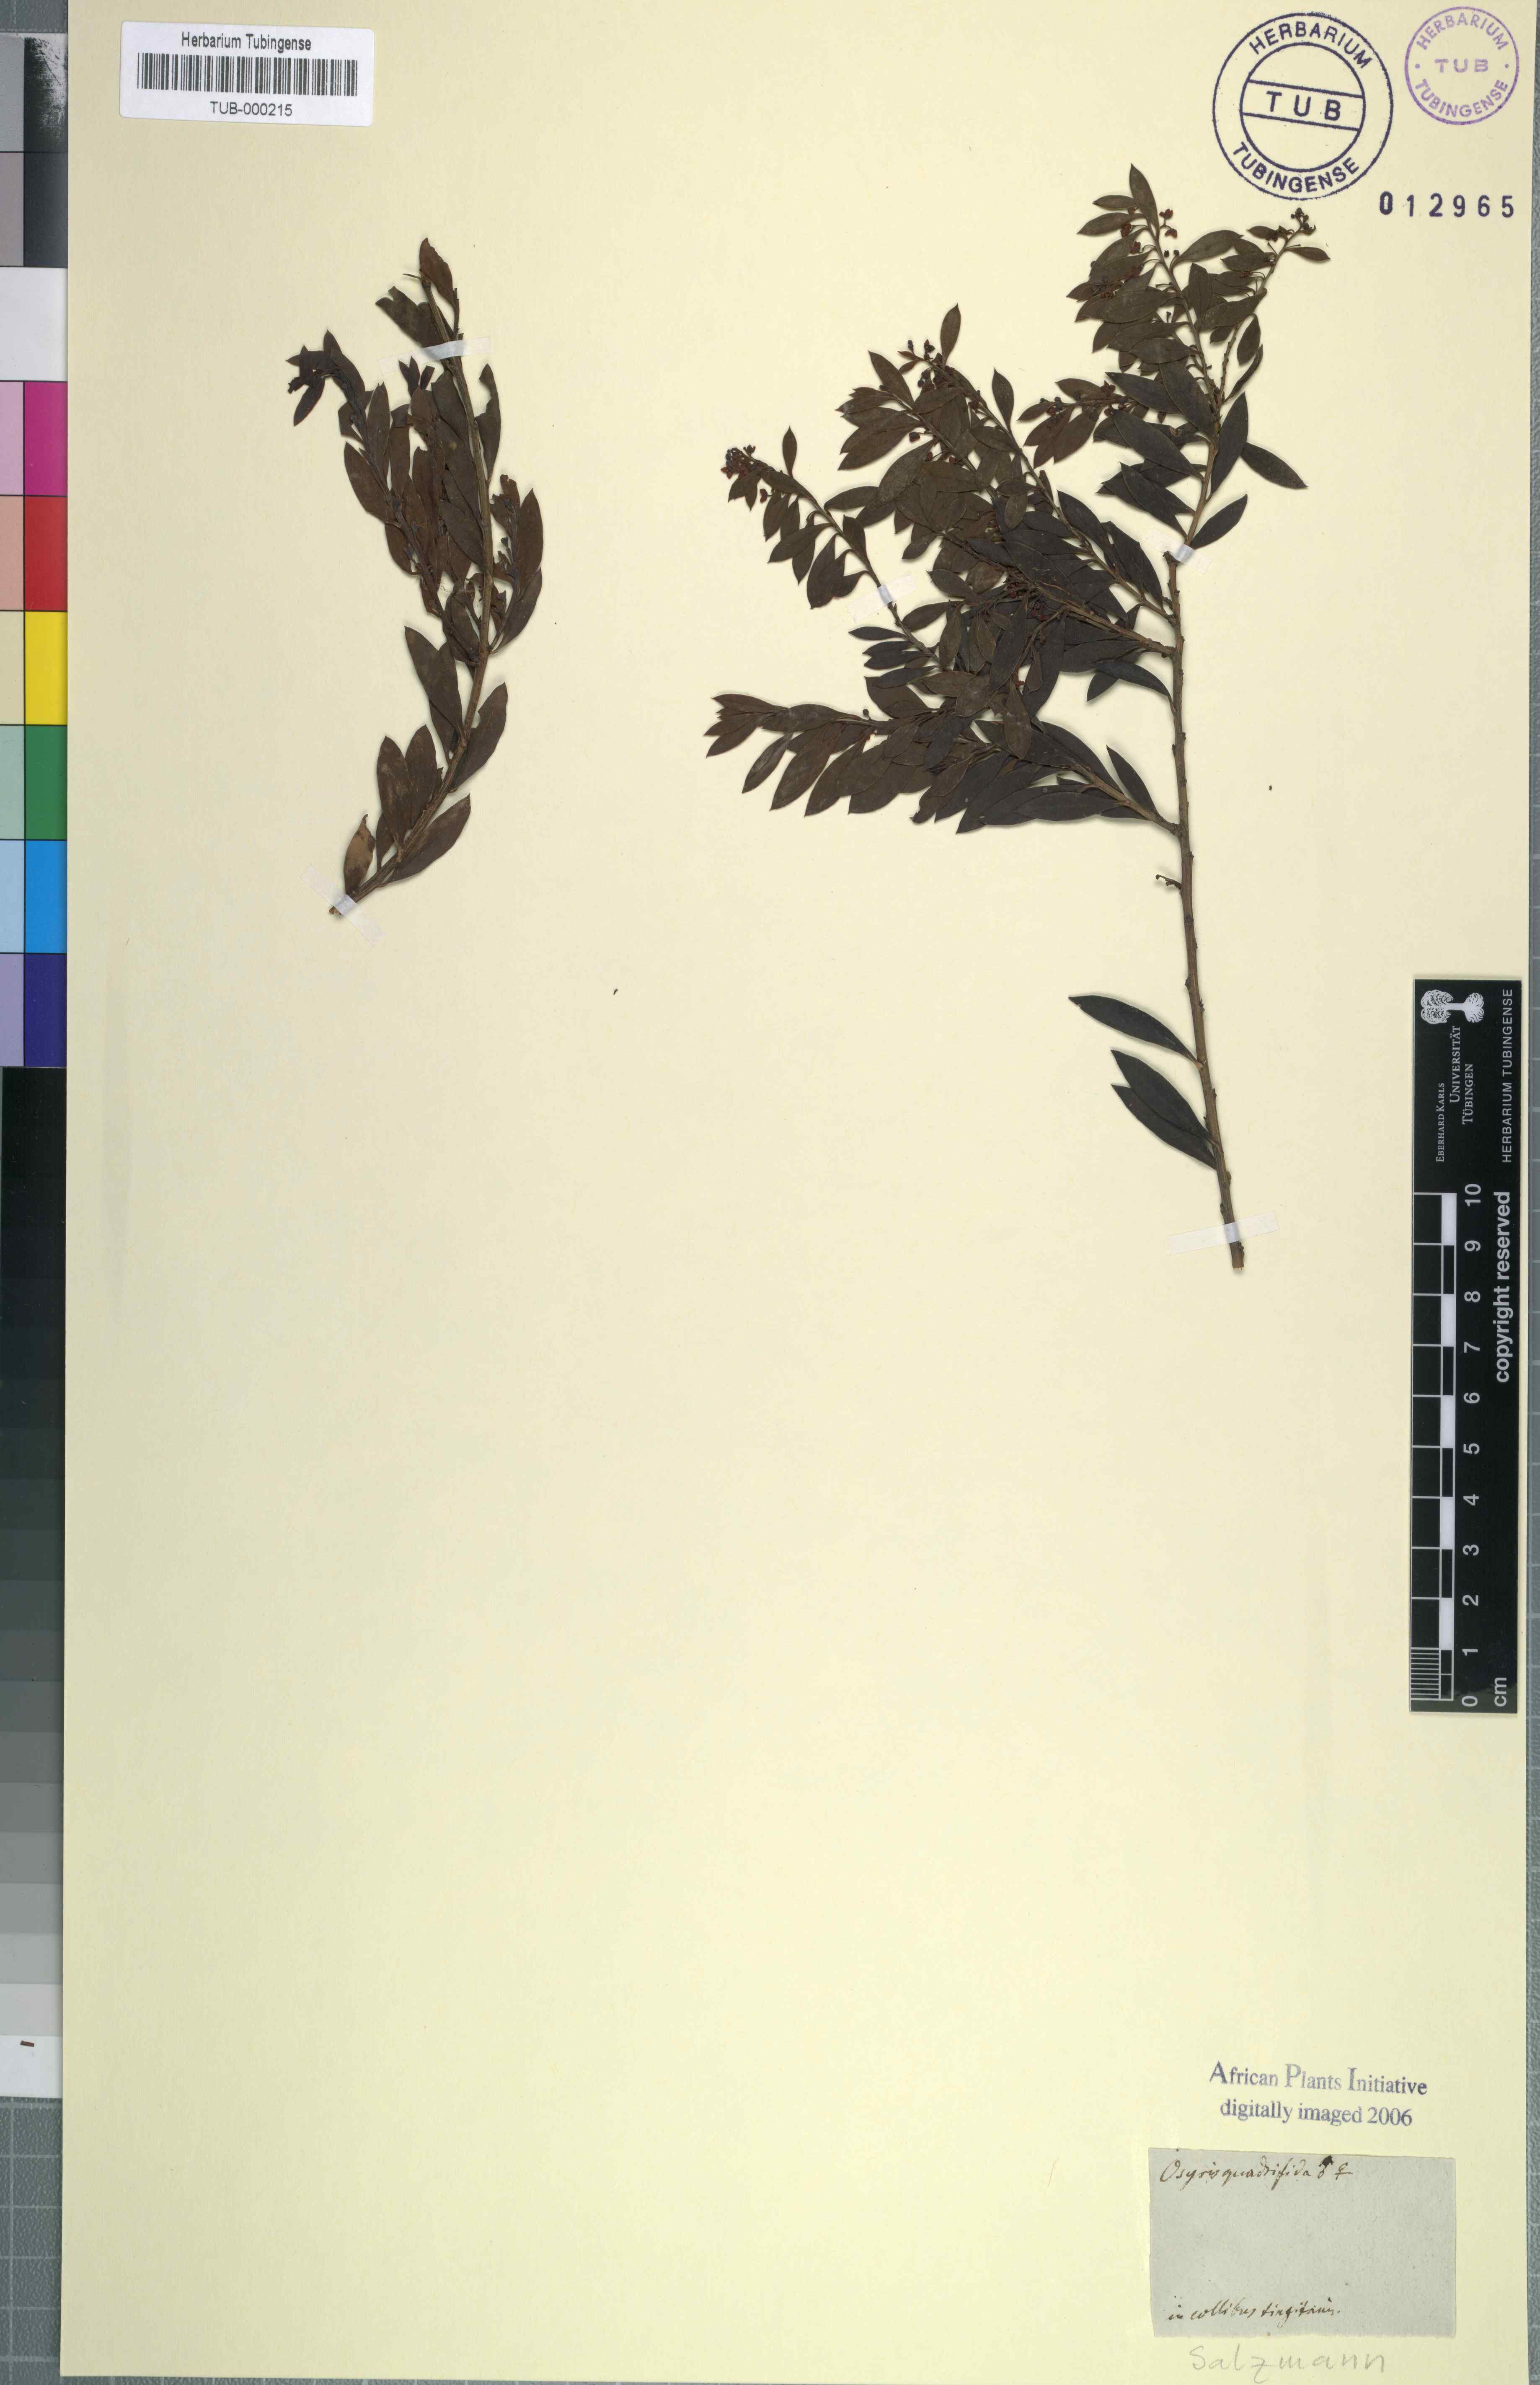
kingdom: Plantae
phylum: Tracheophyta
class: Magnoliopsida
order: Santalales
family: Santalaceae
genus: Osyris
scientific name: Osyris quadripartita
